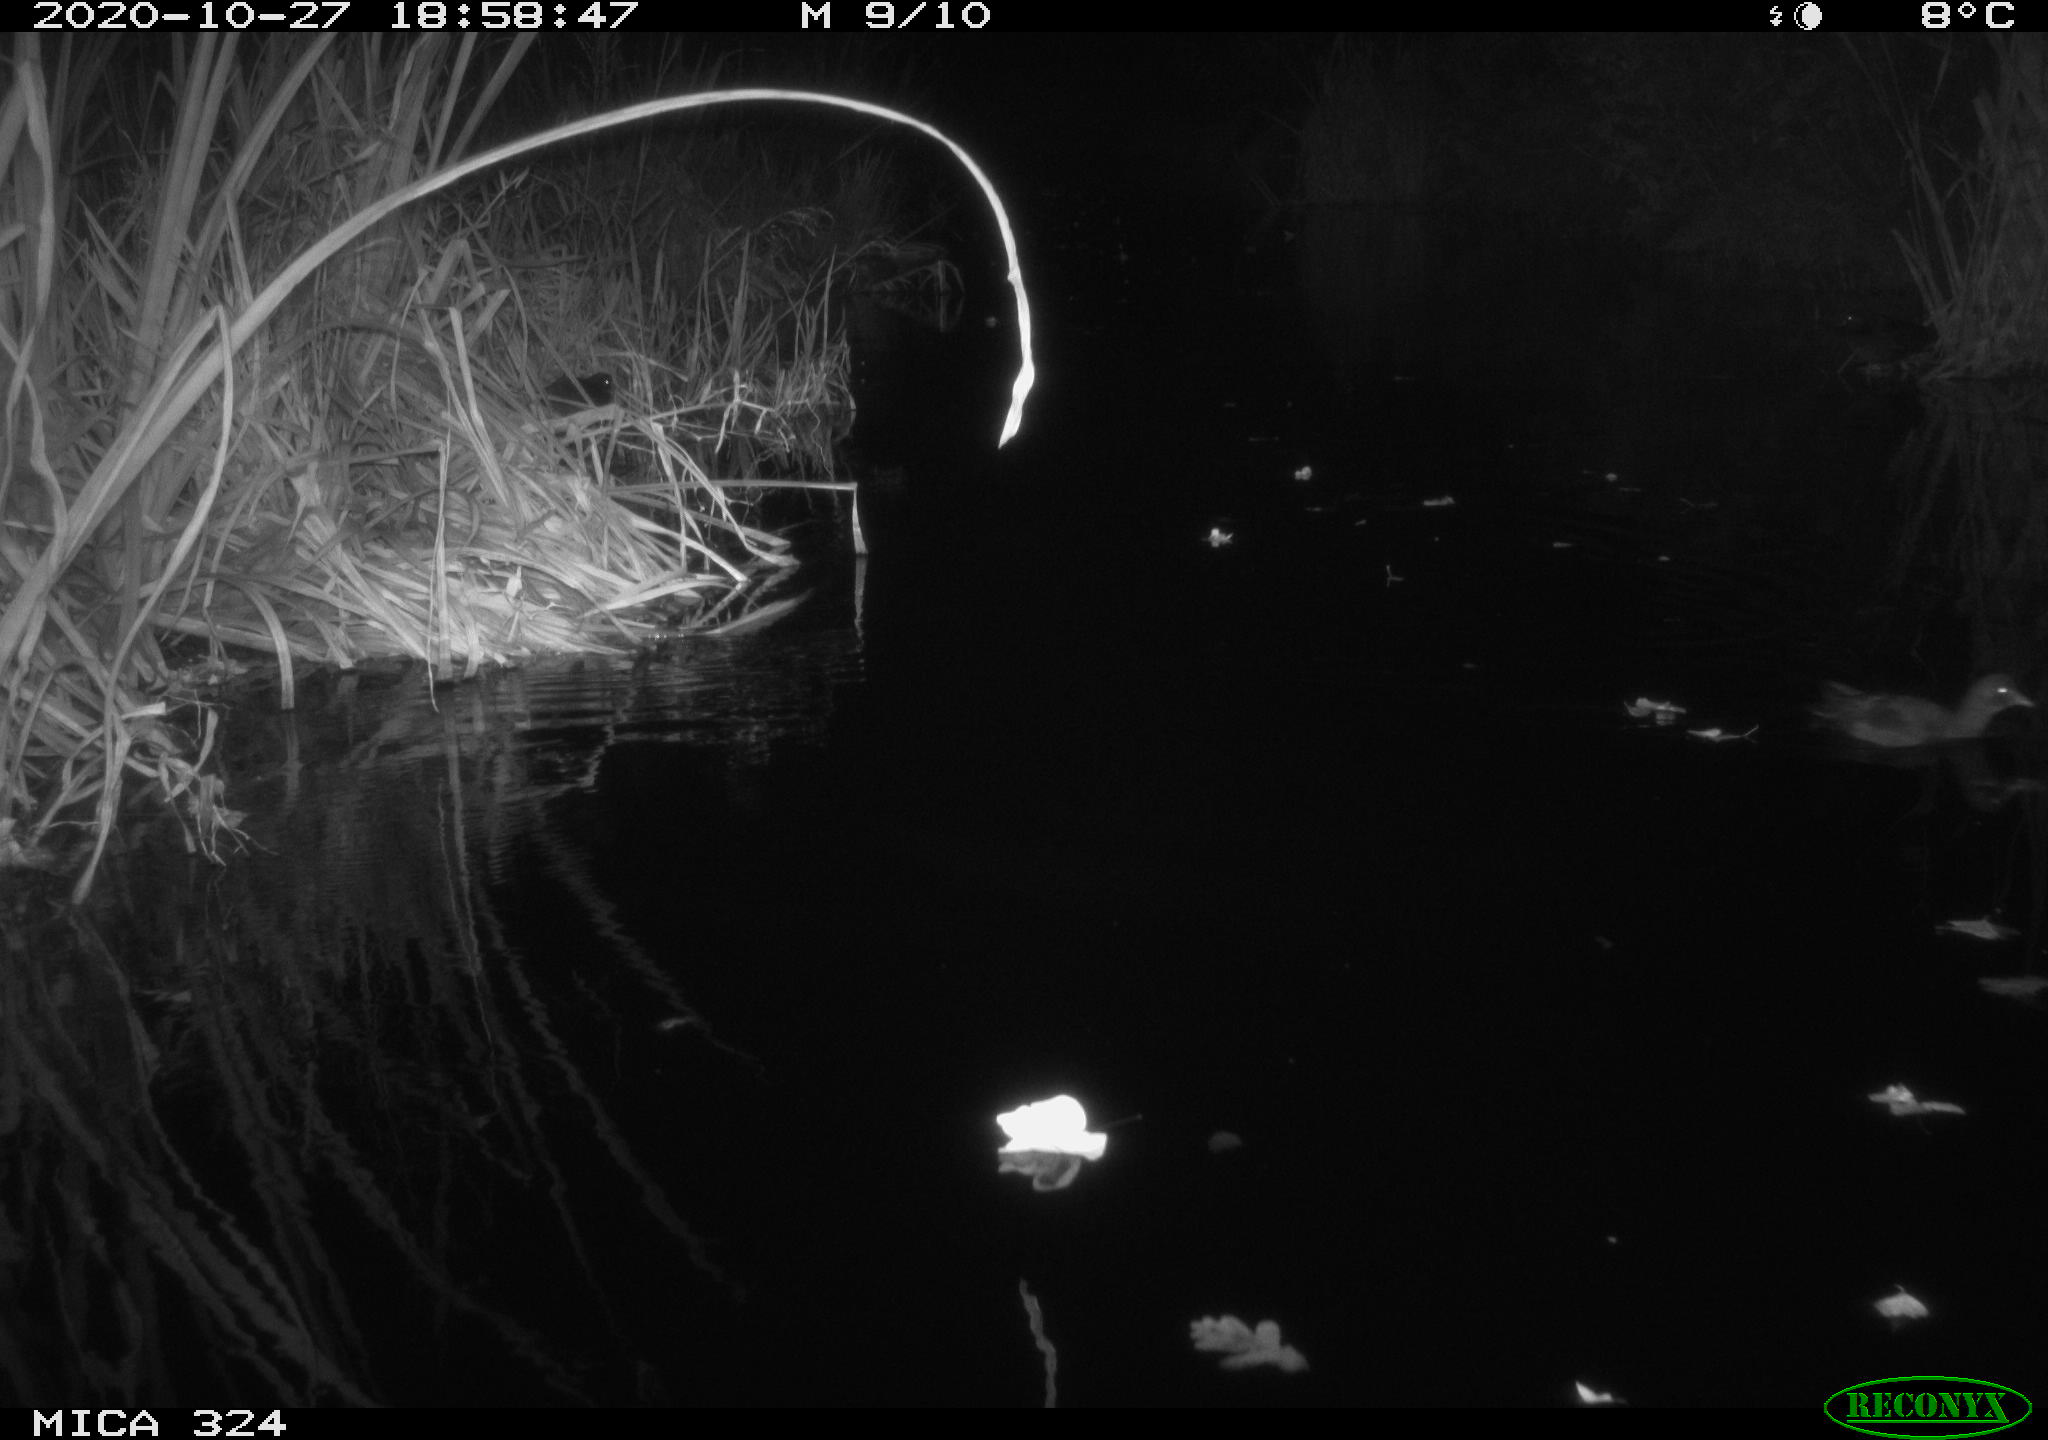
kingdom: Animalia
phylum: Chordata
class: Aves
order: Gruiformes
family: Rallidae
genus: Gallinula
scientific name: Gallinula chloropus
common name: Common moorhen
